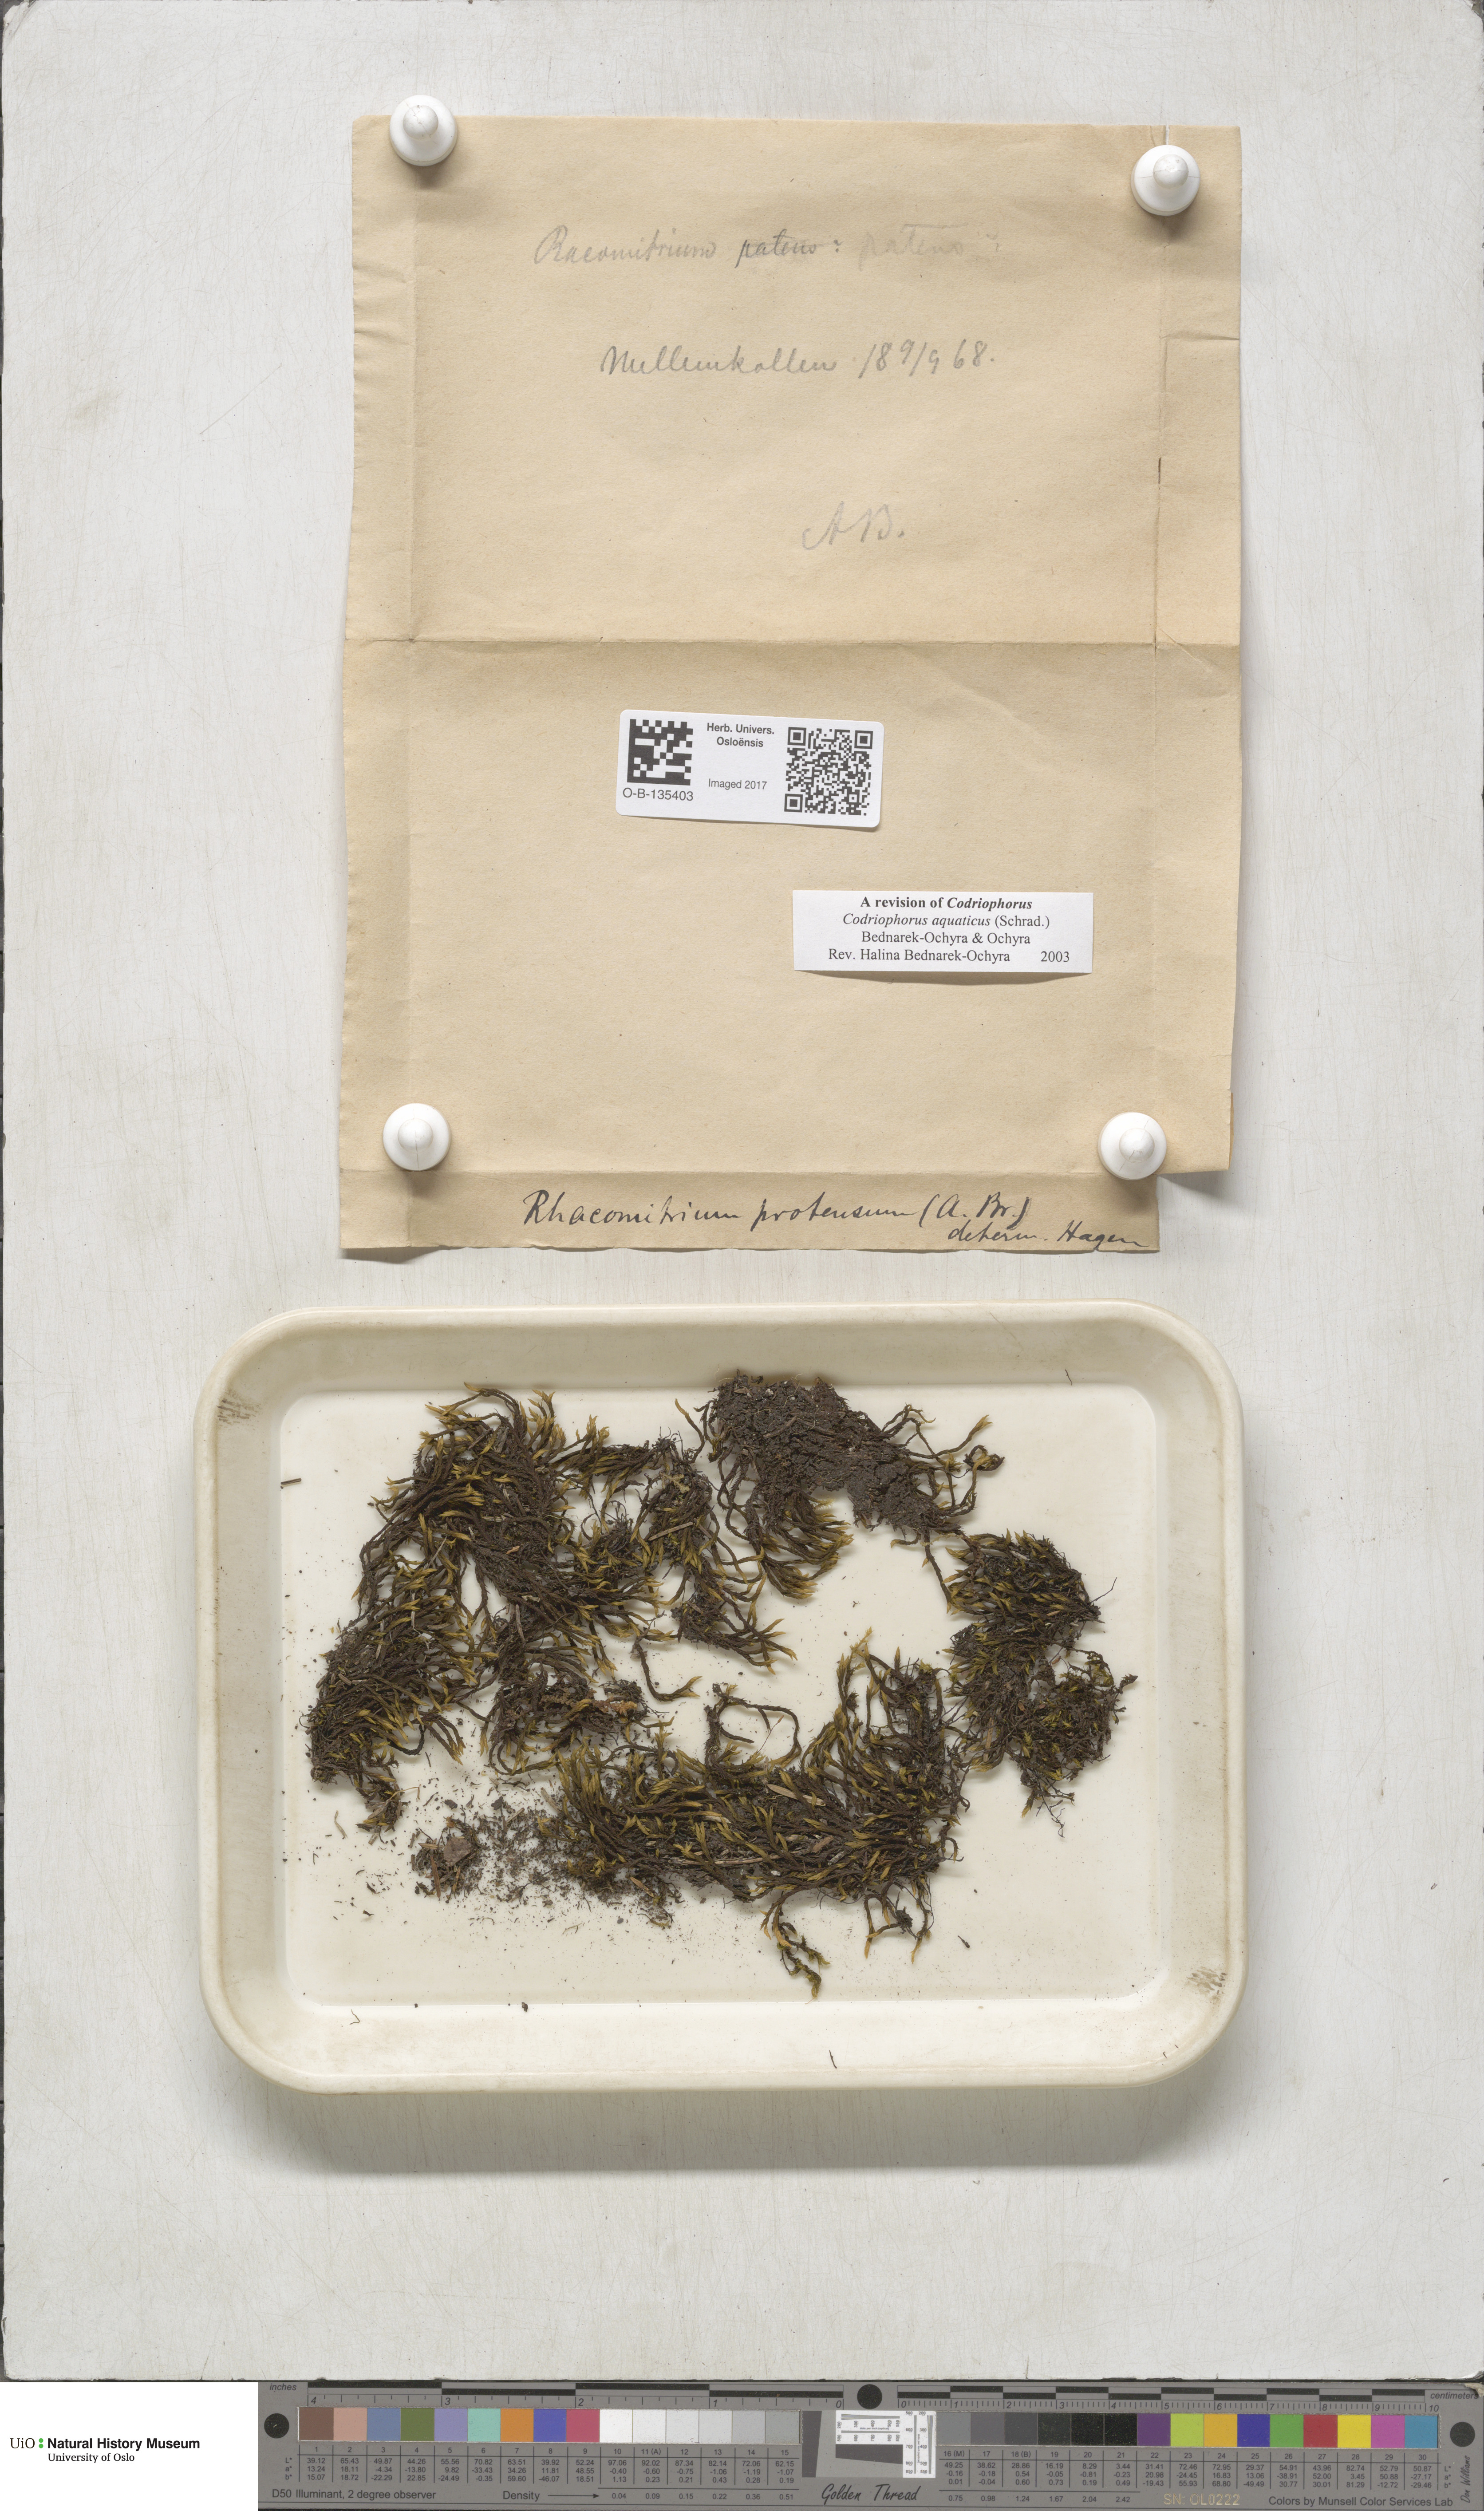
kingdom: Plantae
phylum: Bryophyta
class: Bryopsida
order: Grimmiales
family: Grimmiaceae
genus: Codriophorus
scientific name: Codriophorus aquaticus
